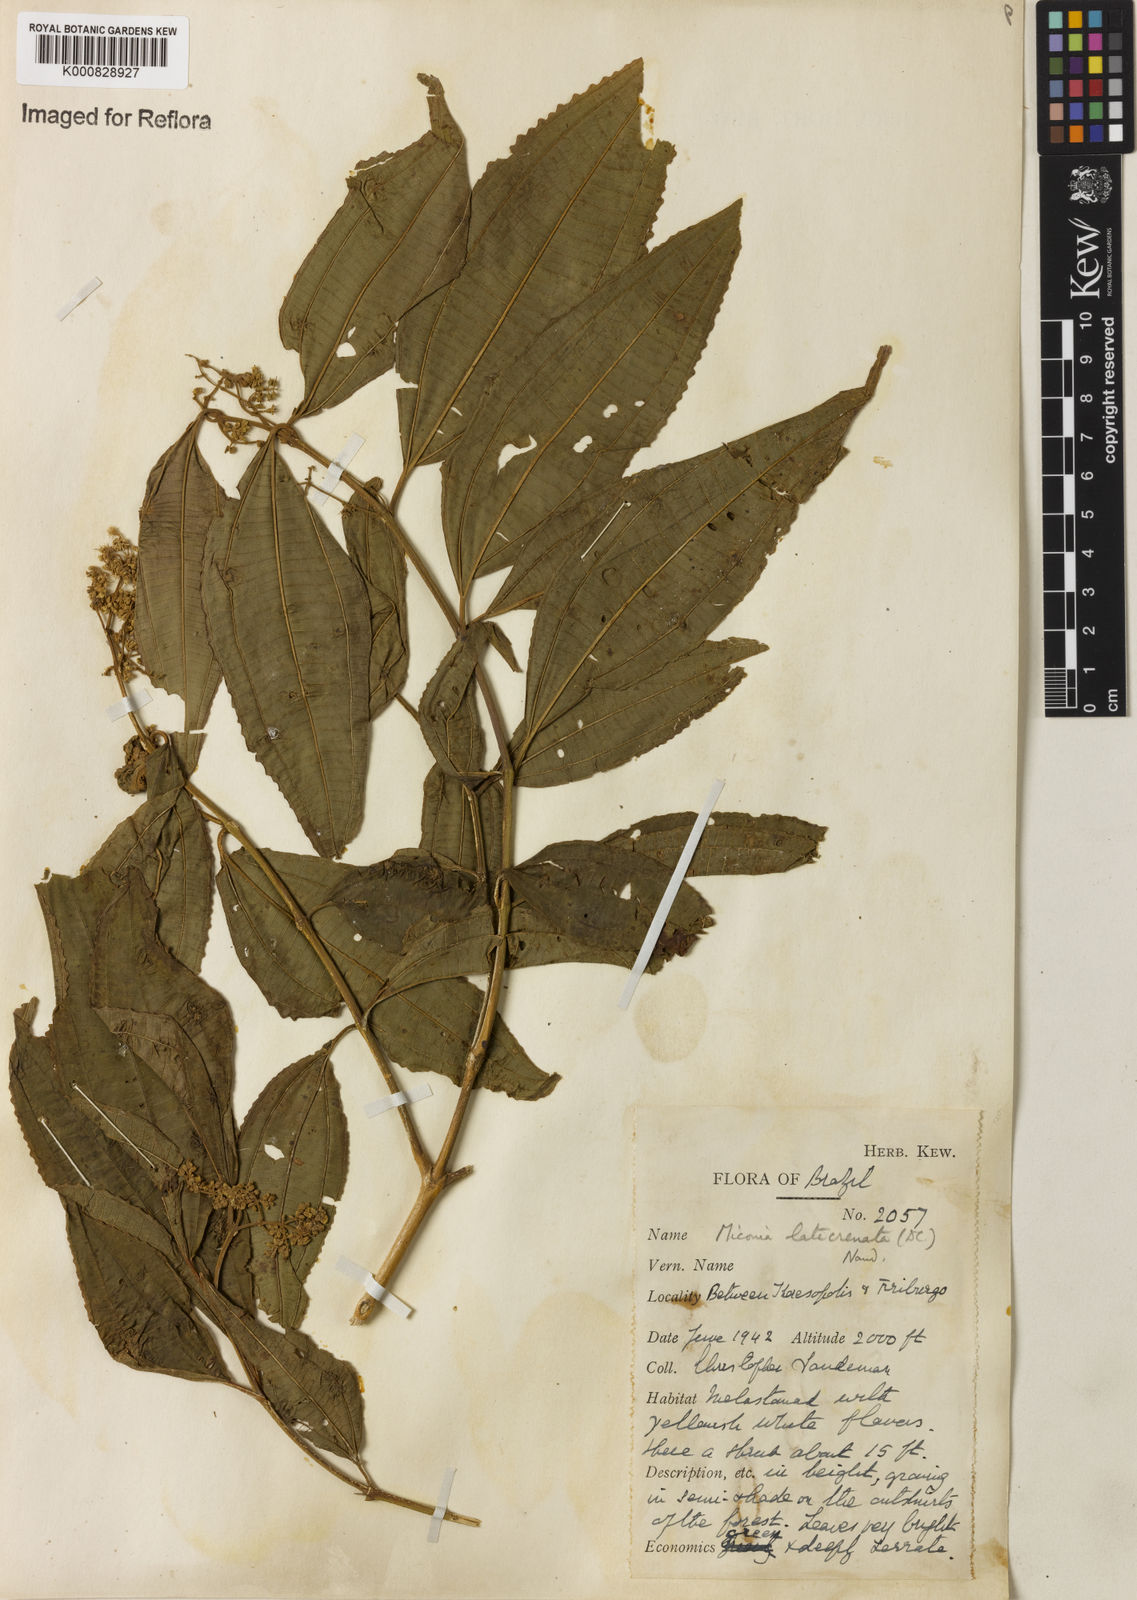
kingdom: Plantae
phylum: Tracheophyta
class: Magnoliopsida
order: Myrtales
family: Melastomataceae
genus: Miconia
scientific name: Miconia latecrenata
